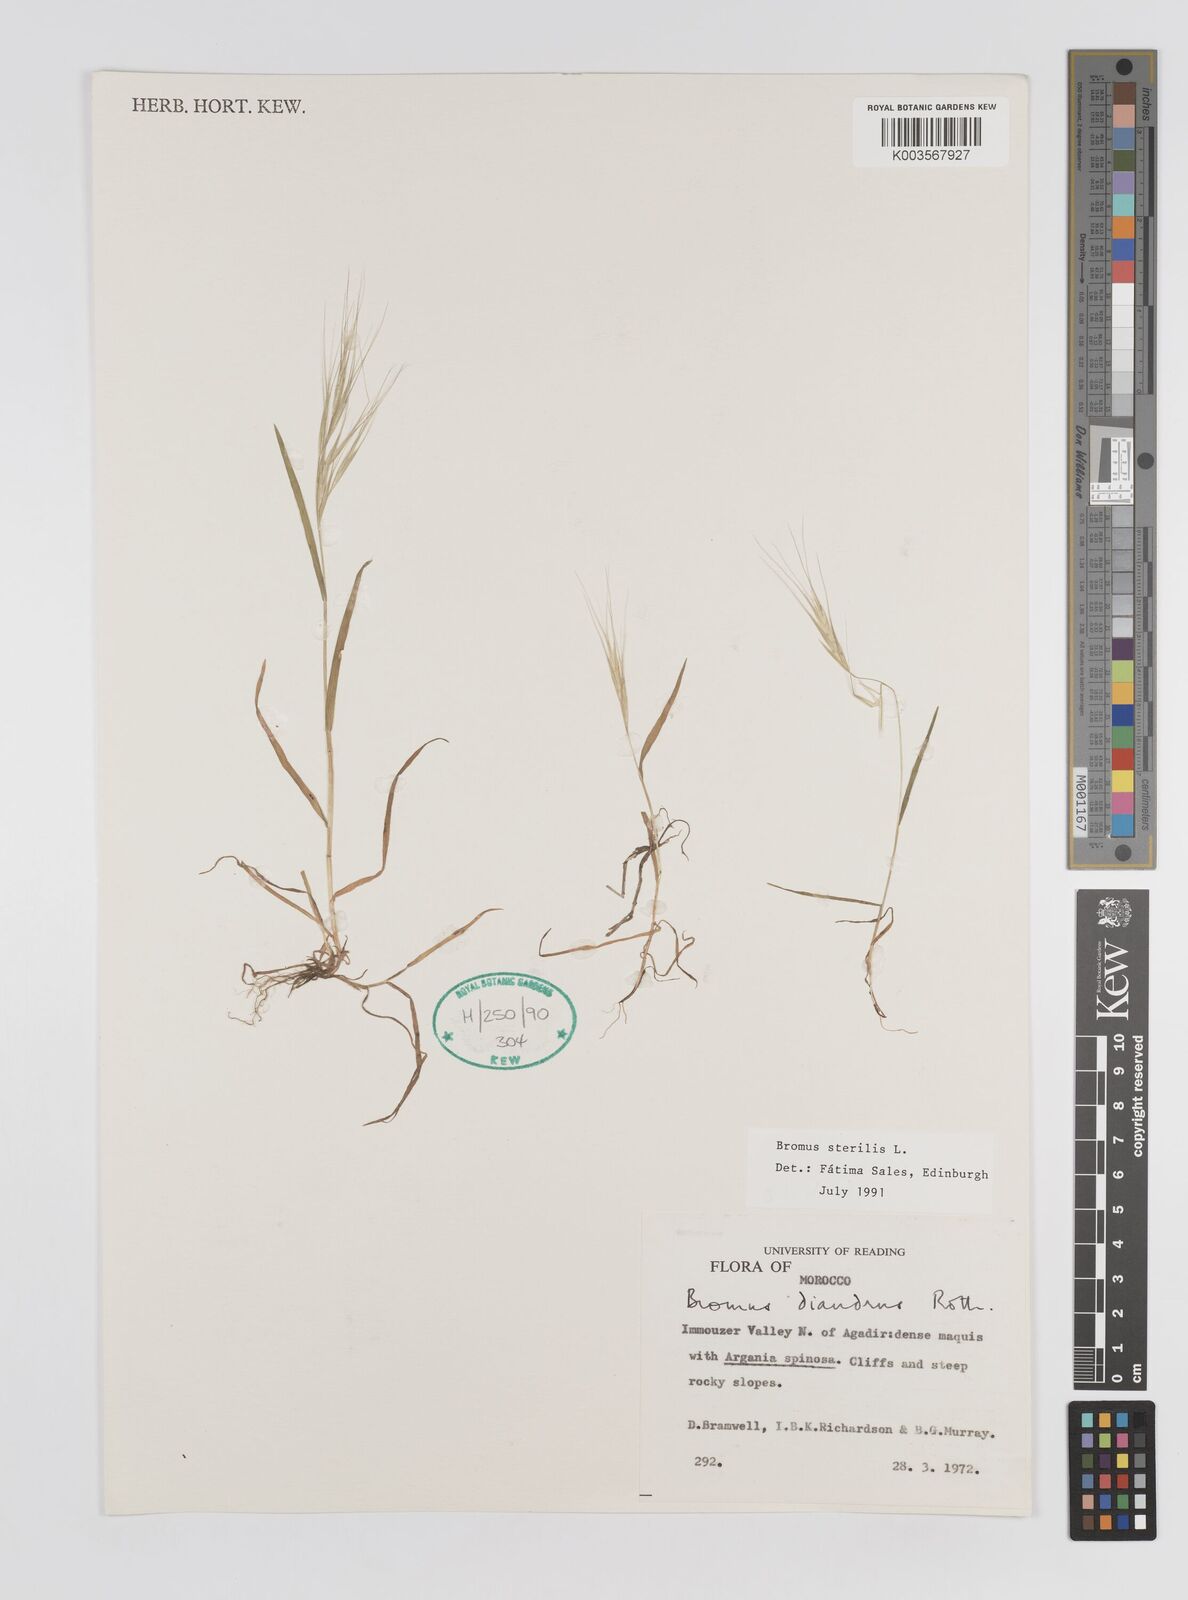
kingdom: Plantae
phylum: Tracheophyta
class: Liliopsida
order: Poales
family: Poaceae
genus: Bromus
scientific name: Bromus sterilis
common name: Poverty brome
